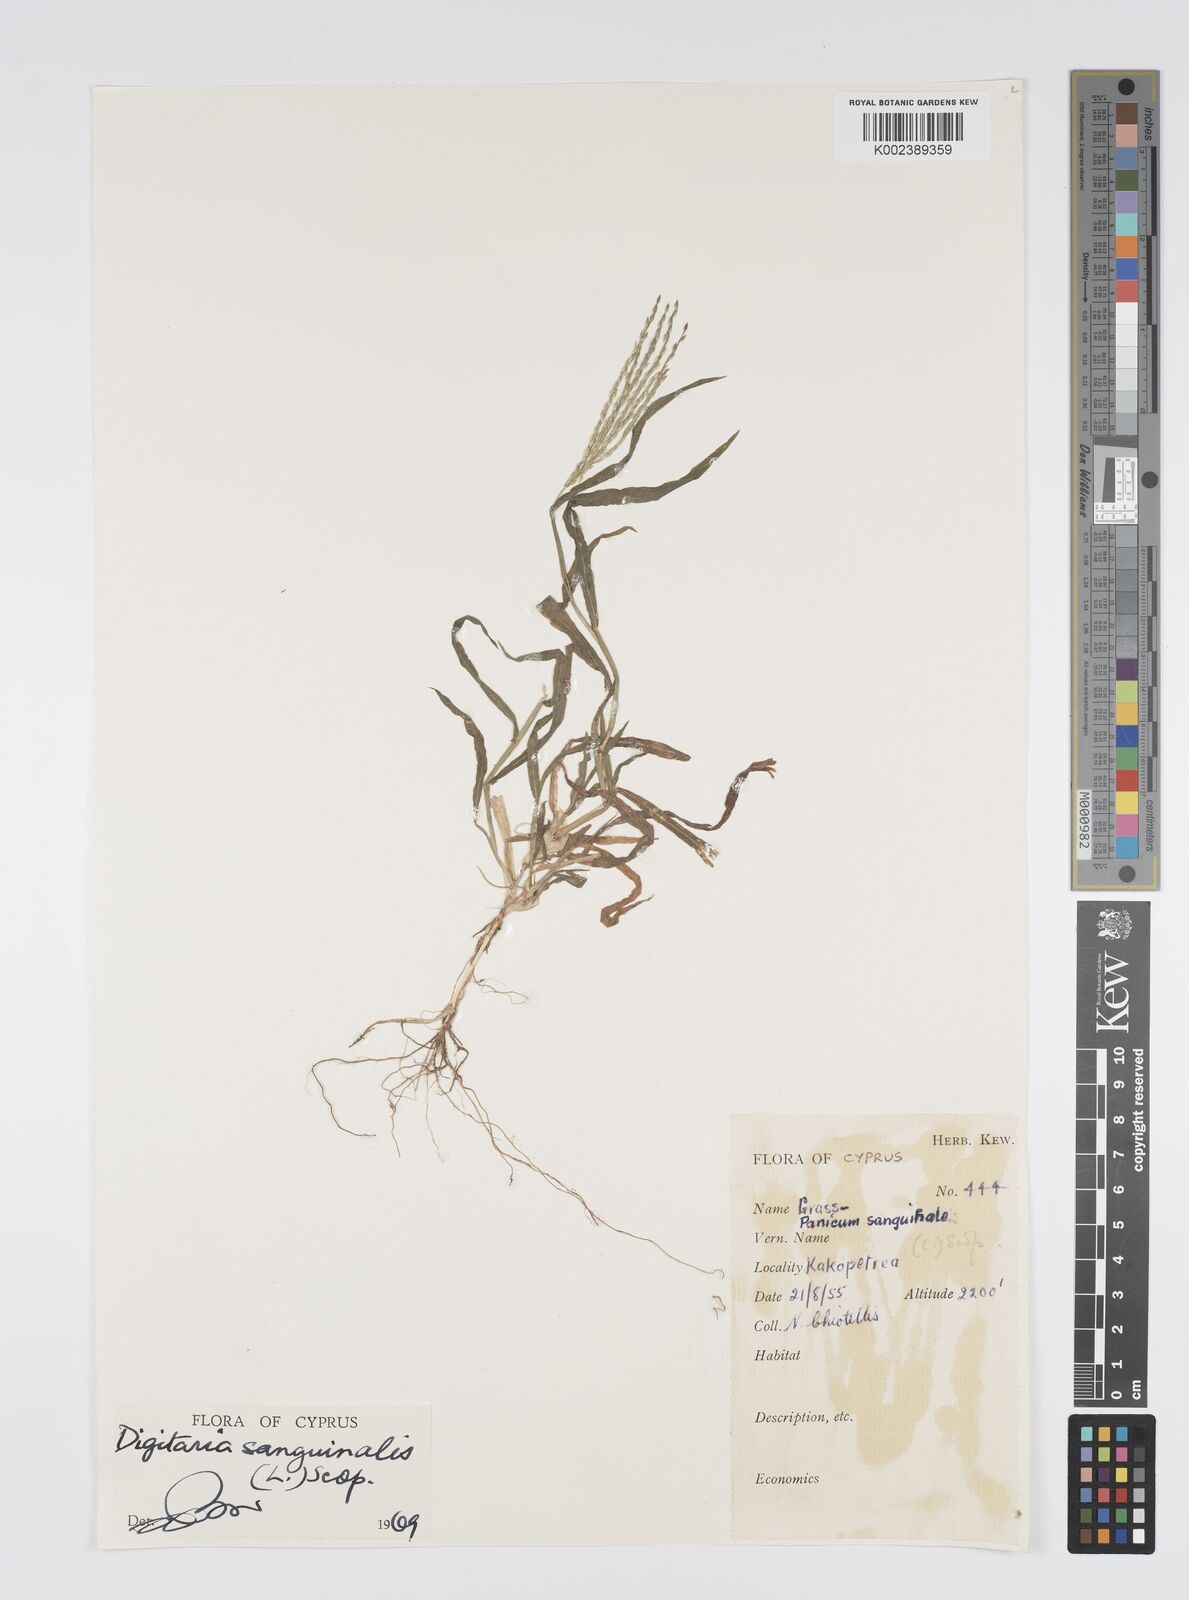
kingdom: Plantae
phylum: Tracheophyta
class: Liliopsida
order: Poales
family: Poaceae
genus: Digitaria
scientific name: Digitaria sanguinalis
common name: Hairy crabgrass
